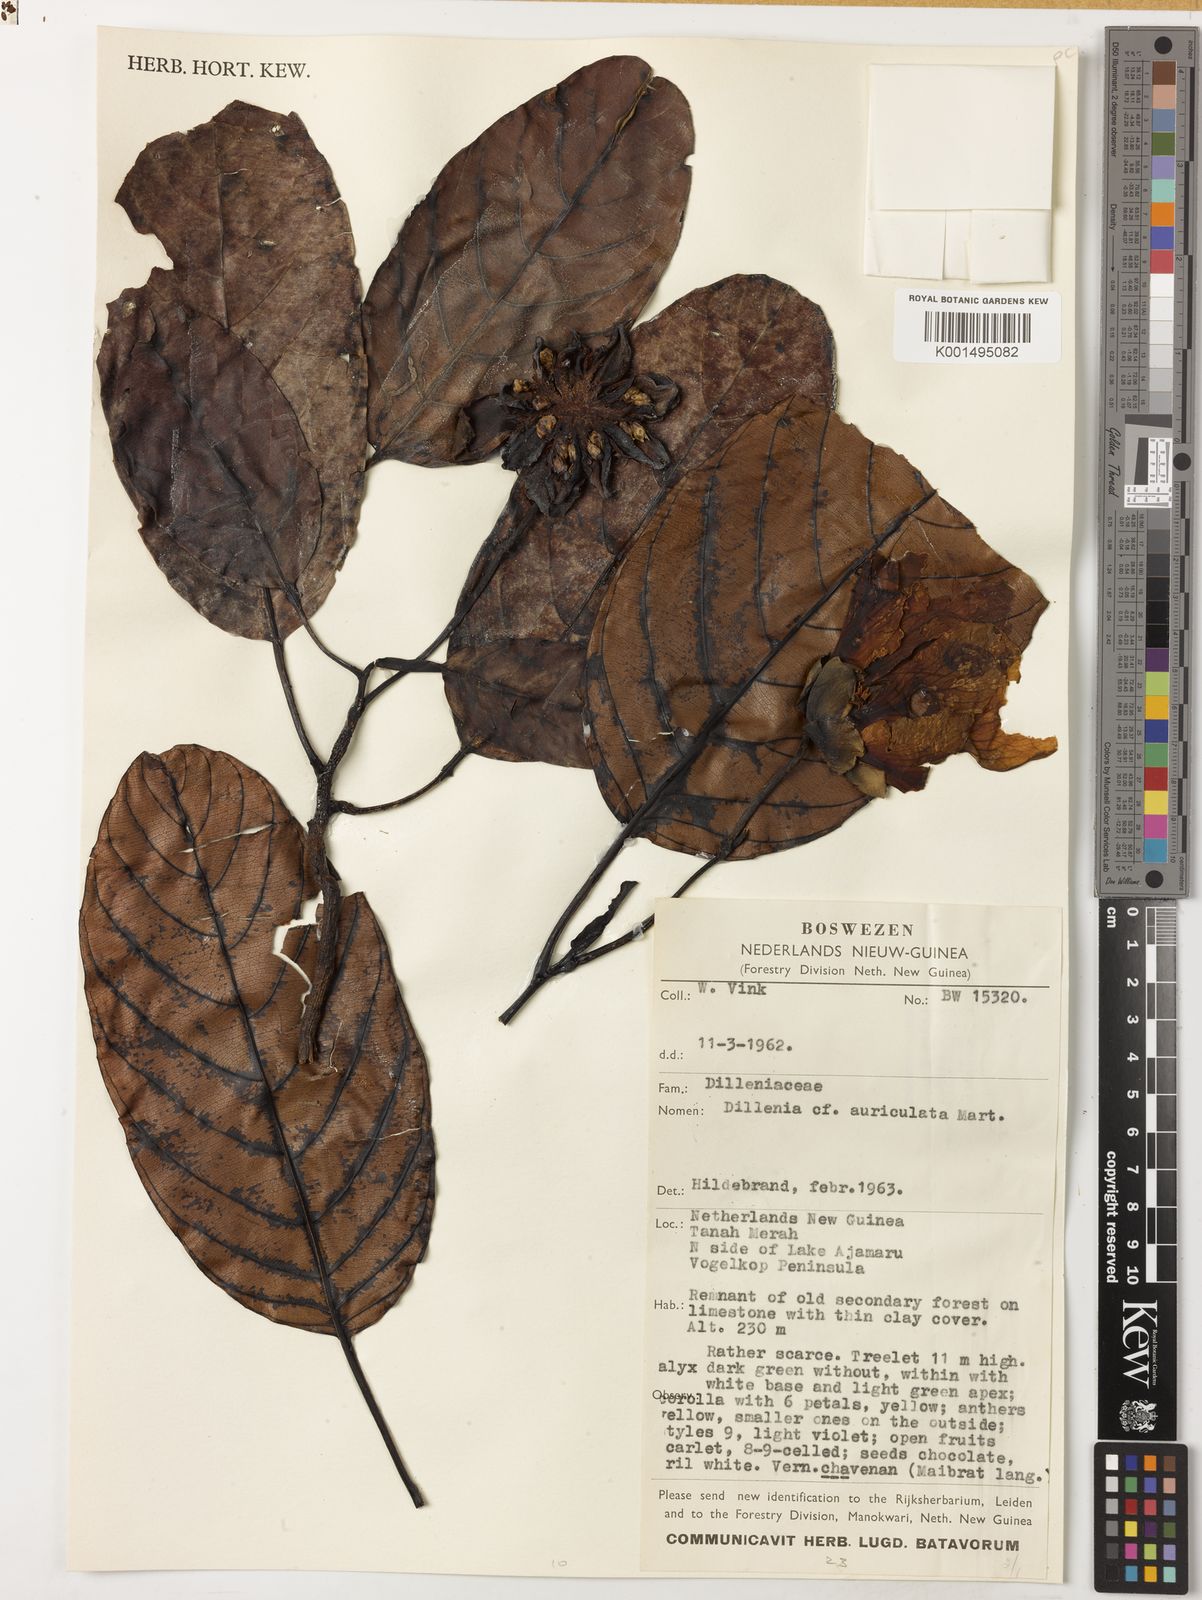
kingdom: Plantae
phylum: Tracheophyta
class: Magnoliopsida
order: Dilleniales
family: Dilleniaceae
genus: Dillenia
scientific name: Dillenia auriculata
